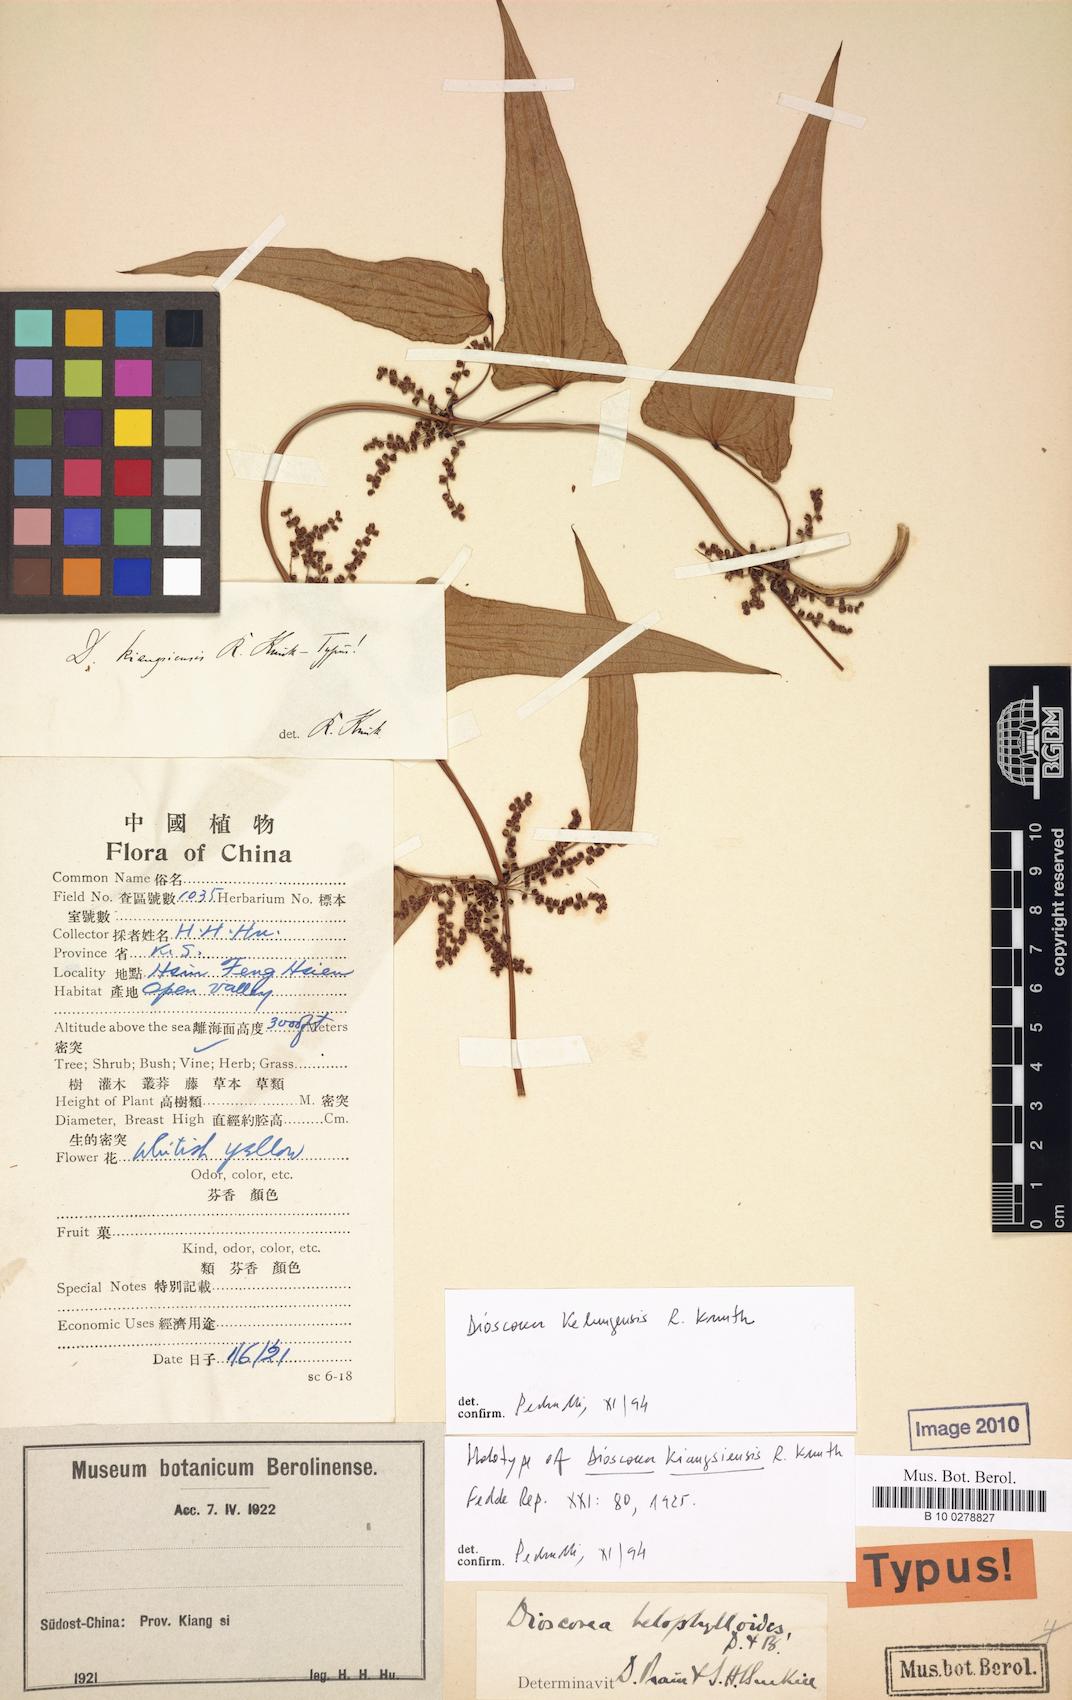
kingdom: Plantae
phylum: Tracheophyta
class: Liliopsida
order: Dioscoreales
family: Dioscoreaceae
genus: Dioscorea
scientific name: Dioscorea japonica
